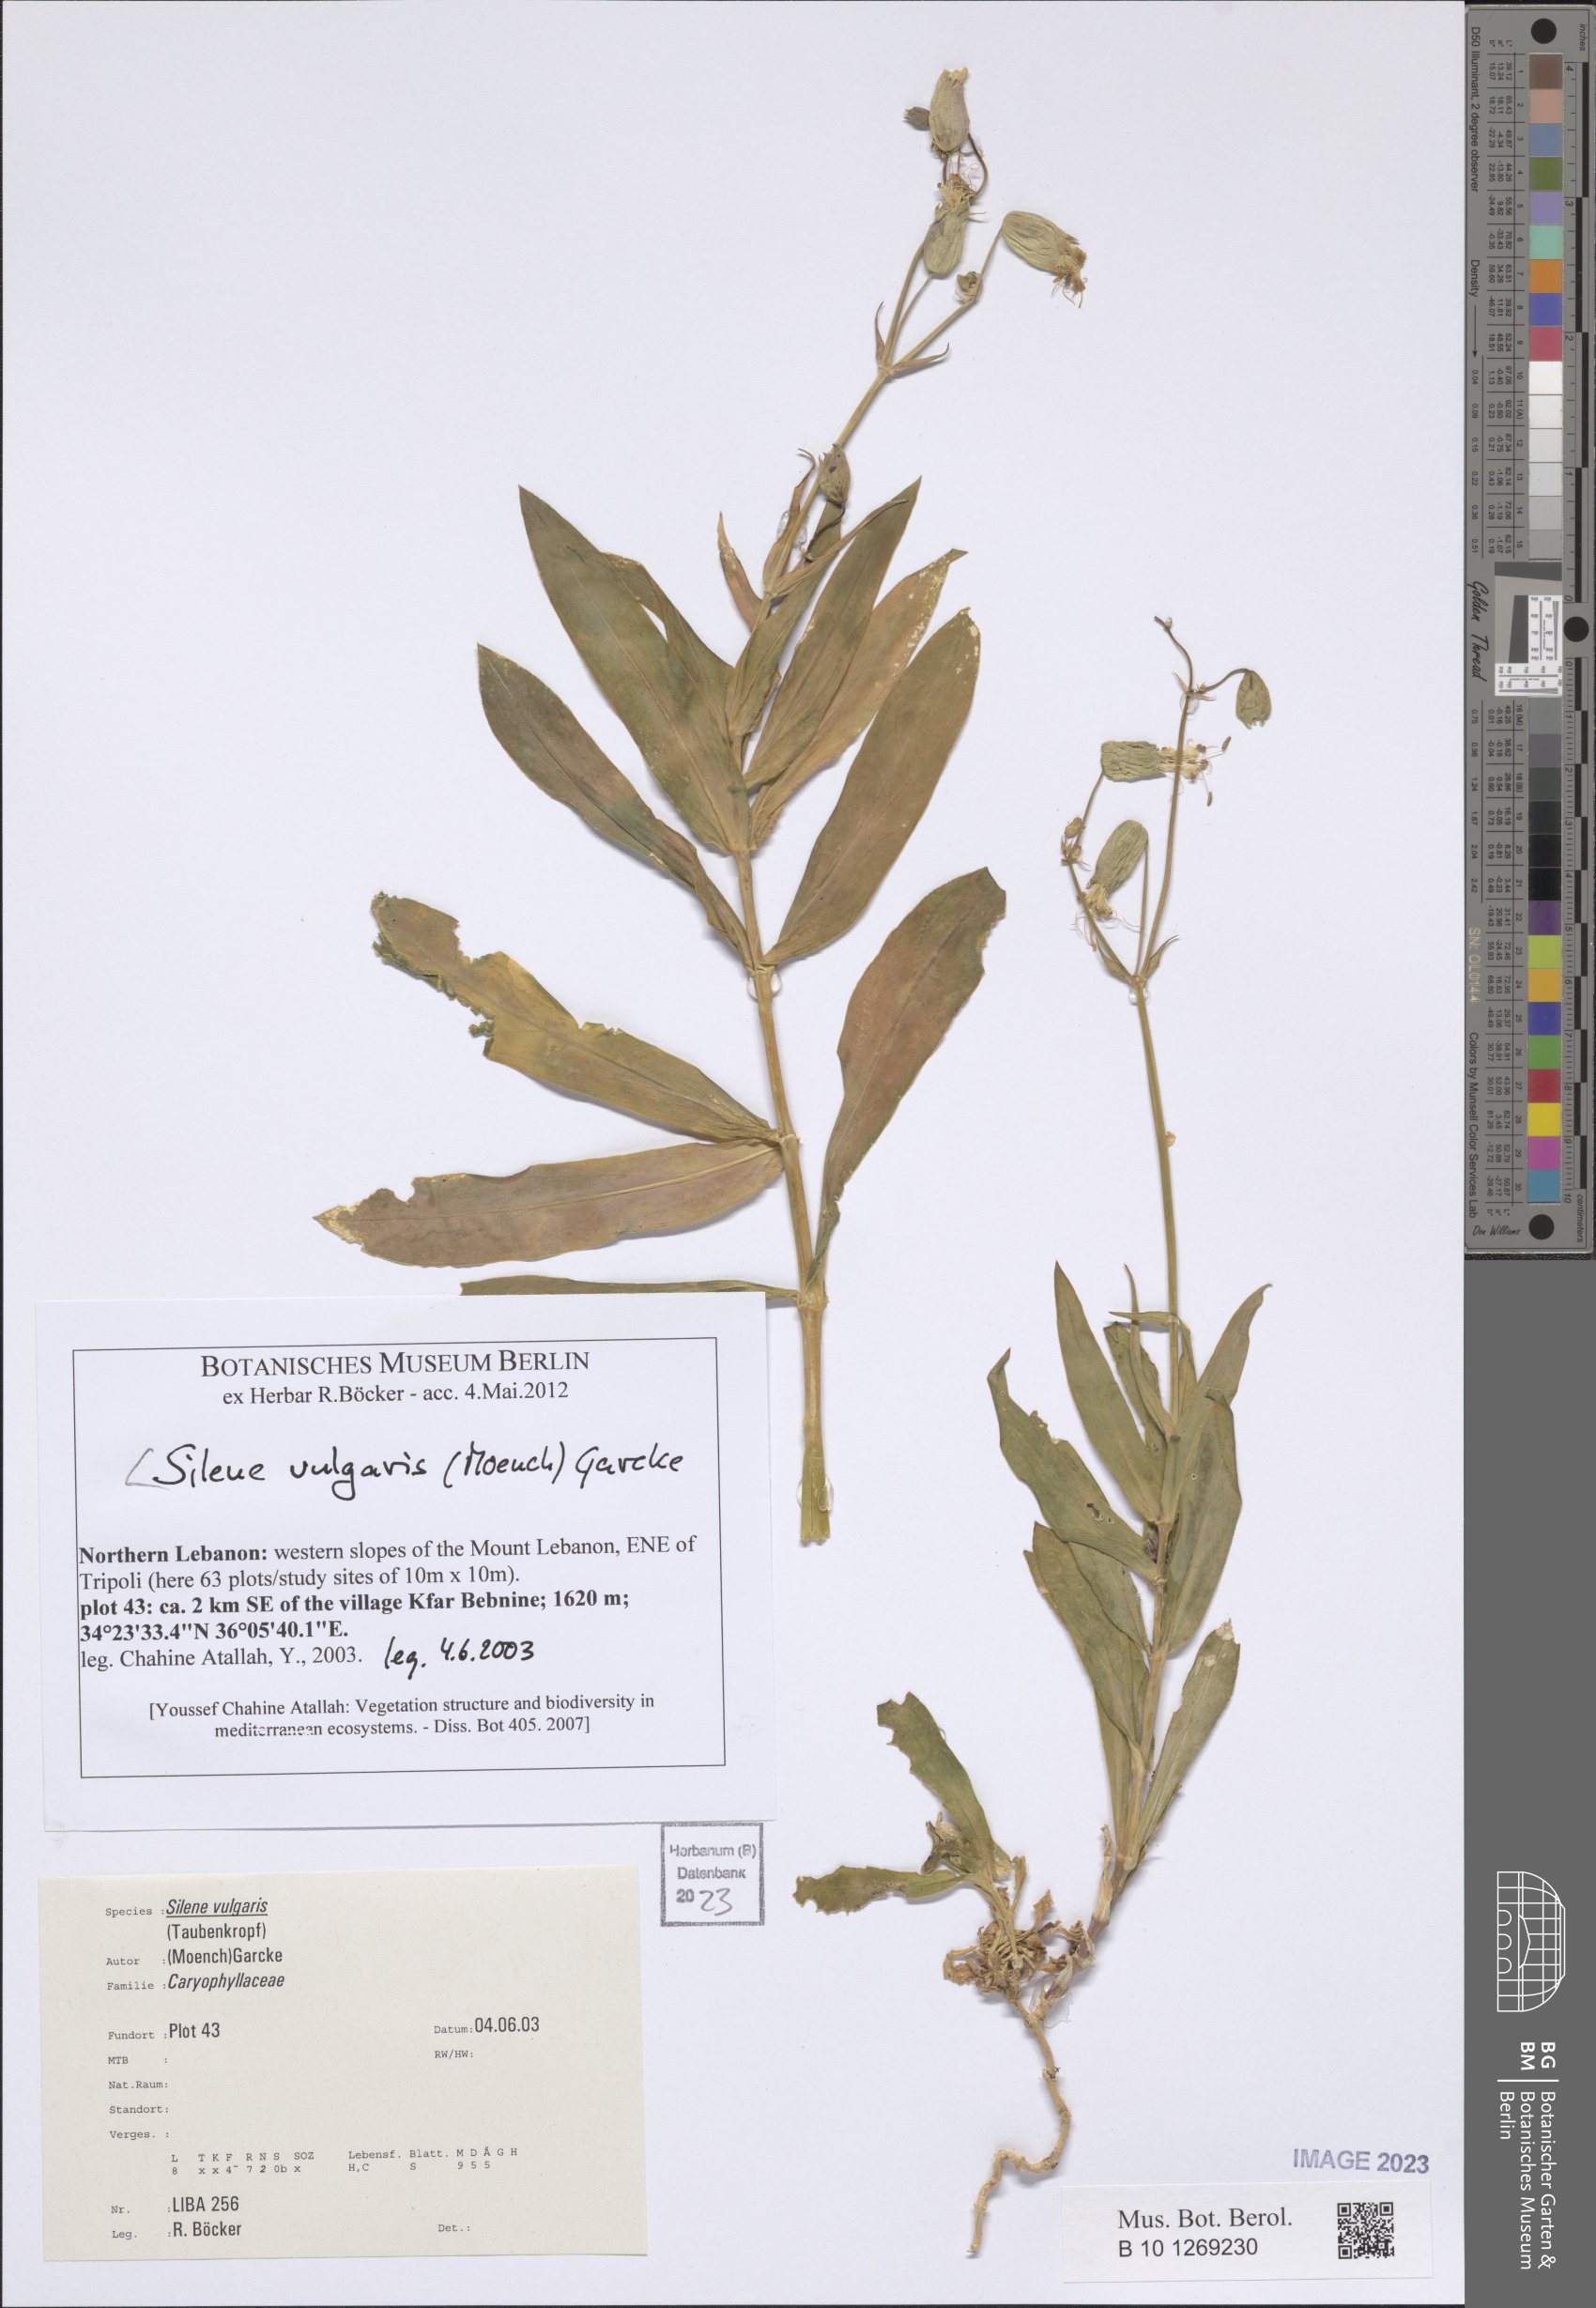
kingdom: Plantae
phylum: Tracheophyta
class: Magnoliopsida
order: Caryophyllales
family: Caryophyllaceae
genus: Silene
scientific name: Silene vulgaris
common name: Bladder campion
